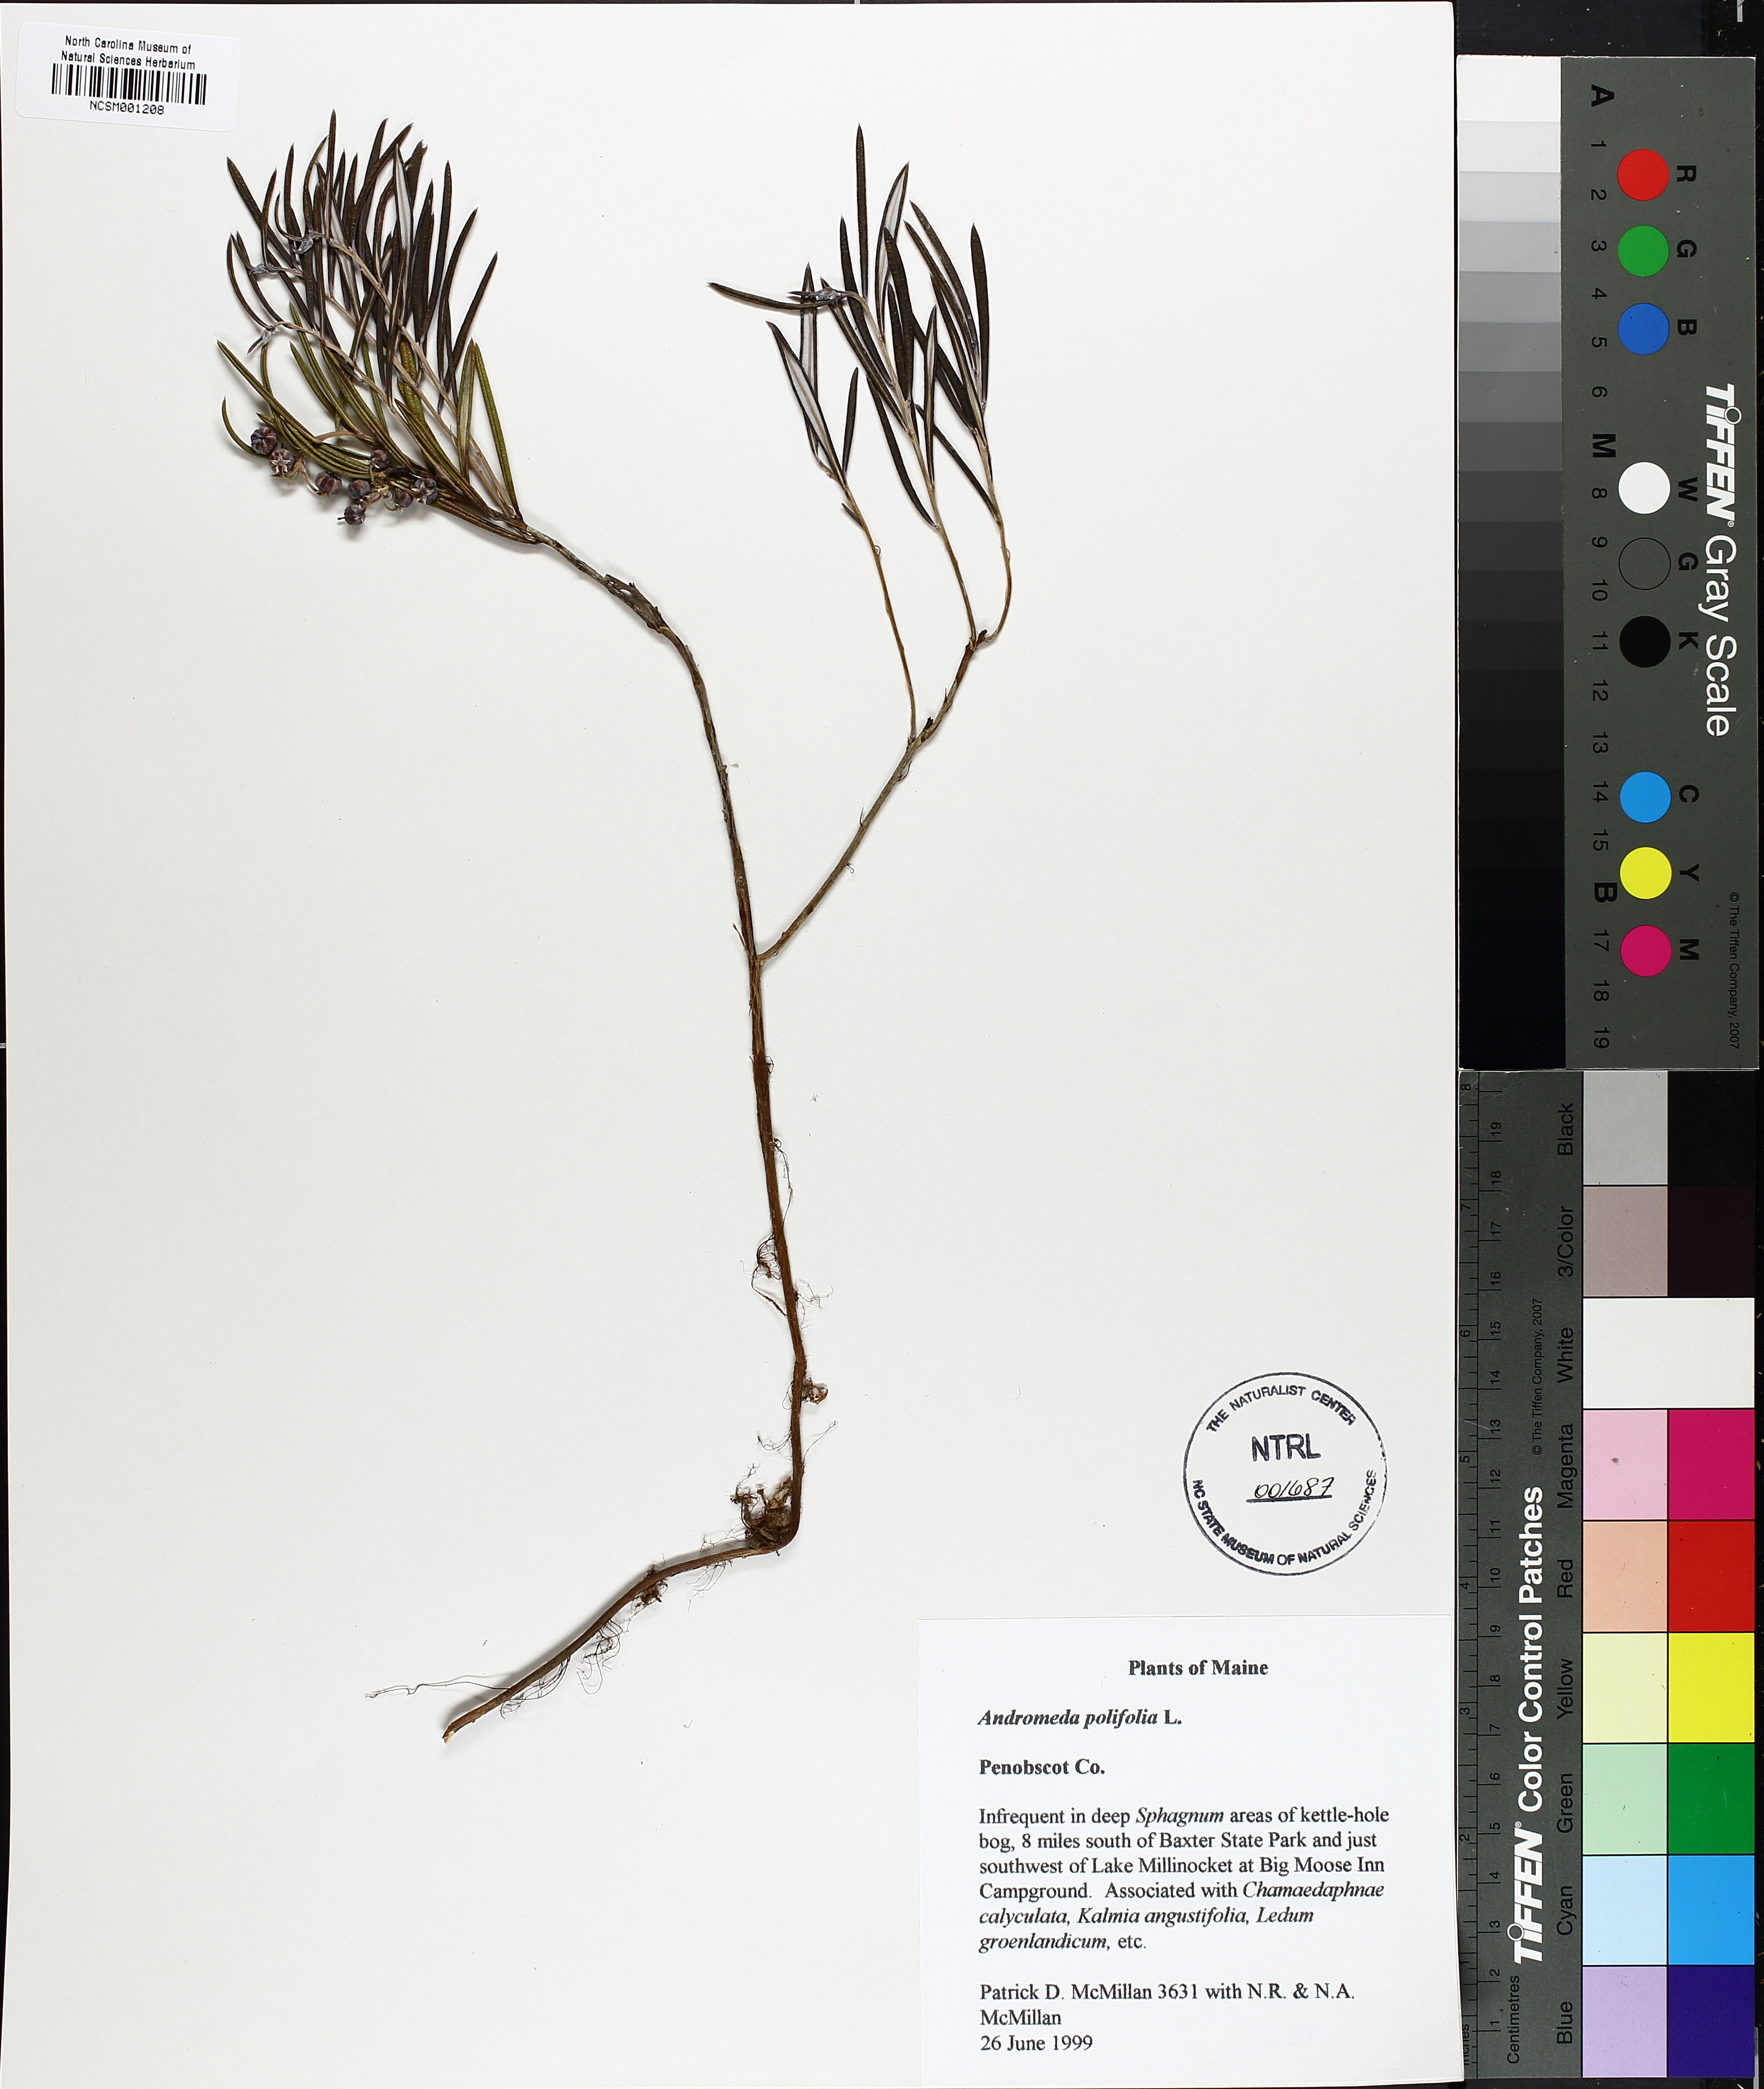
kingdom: Plantae
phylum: Tracheophyta
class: Magnoliopsida
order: Ericales
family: Ericaceae
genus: Andromeda
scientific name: Andromeda polifolia
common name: Bog-rosemary
